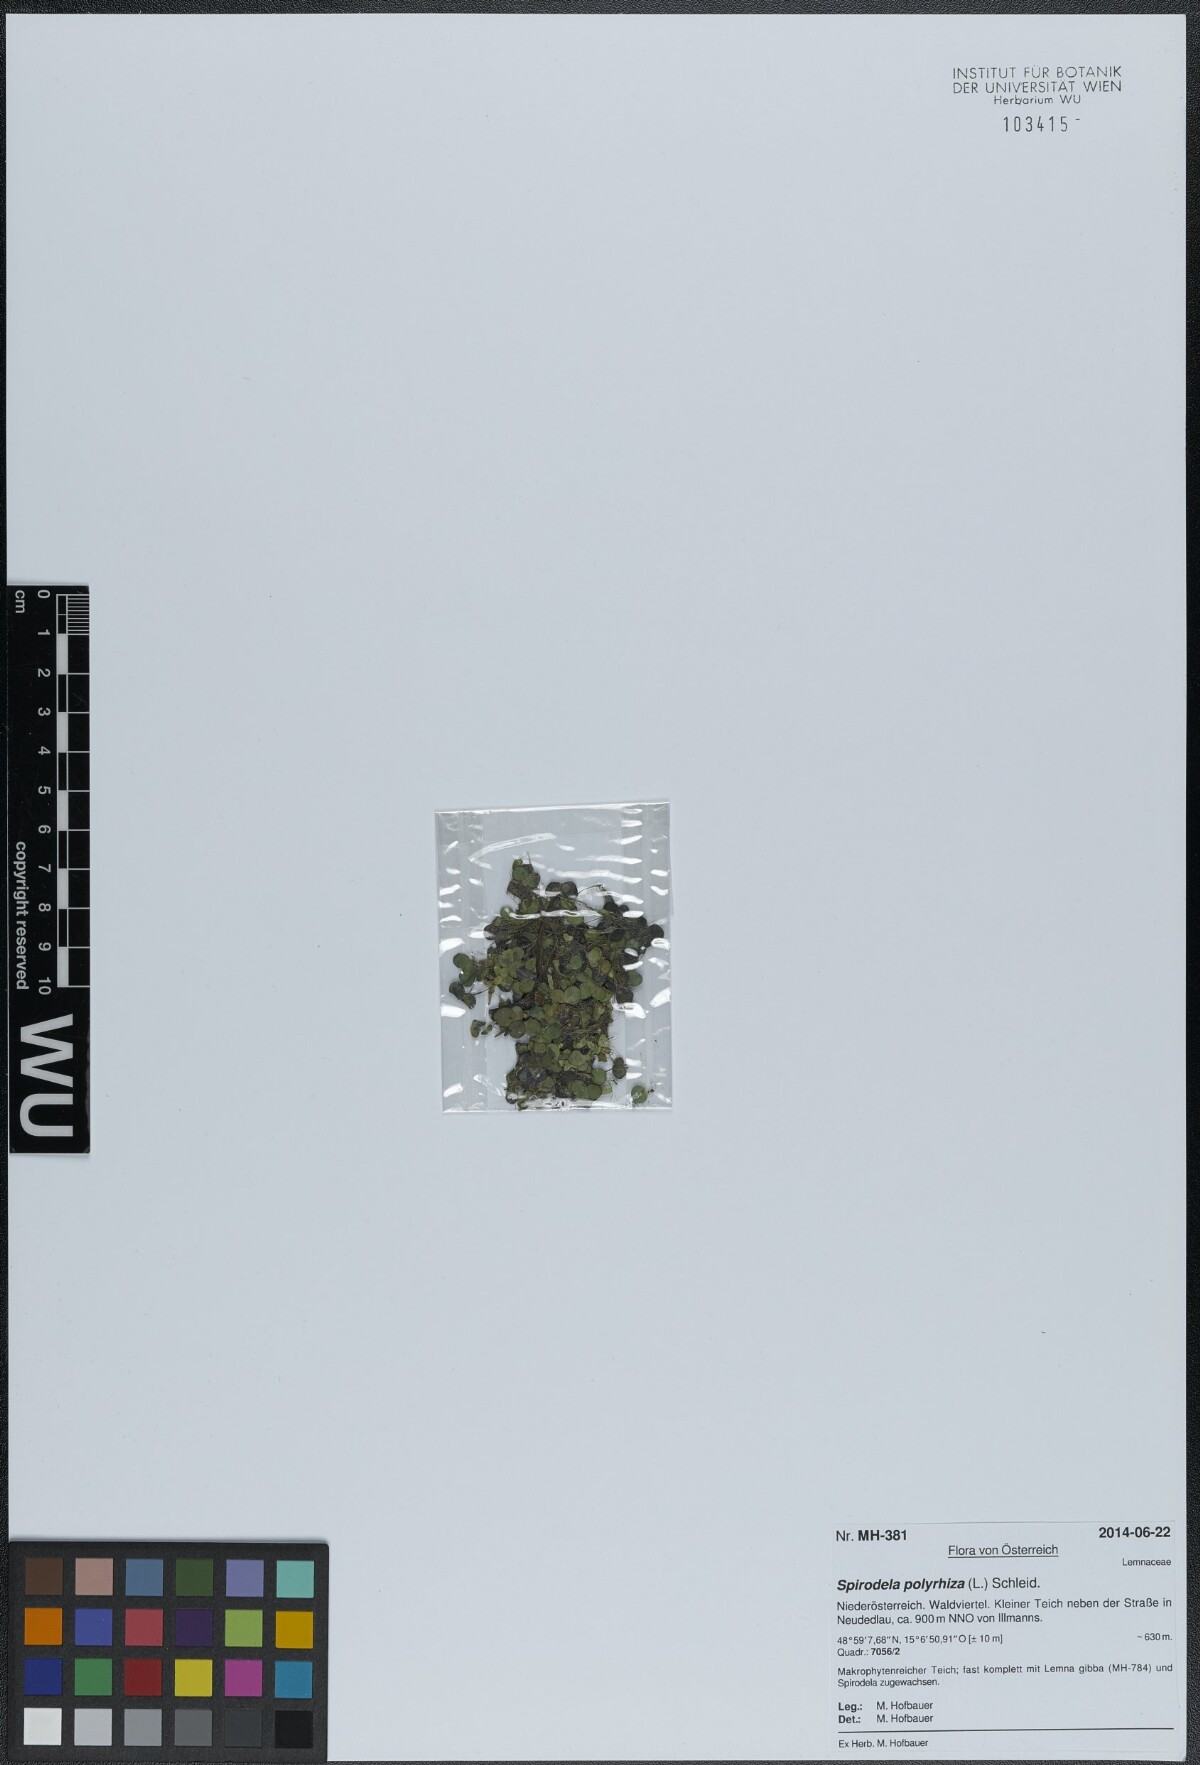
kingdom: Plantae
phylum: Tracheophyta
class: Liliopsida
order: Alismatales
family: Araceae
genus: Spirodela
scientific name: Spirodela polyrhiza
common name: Great duckweed
